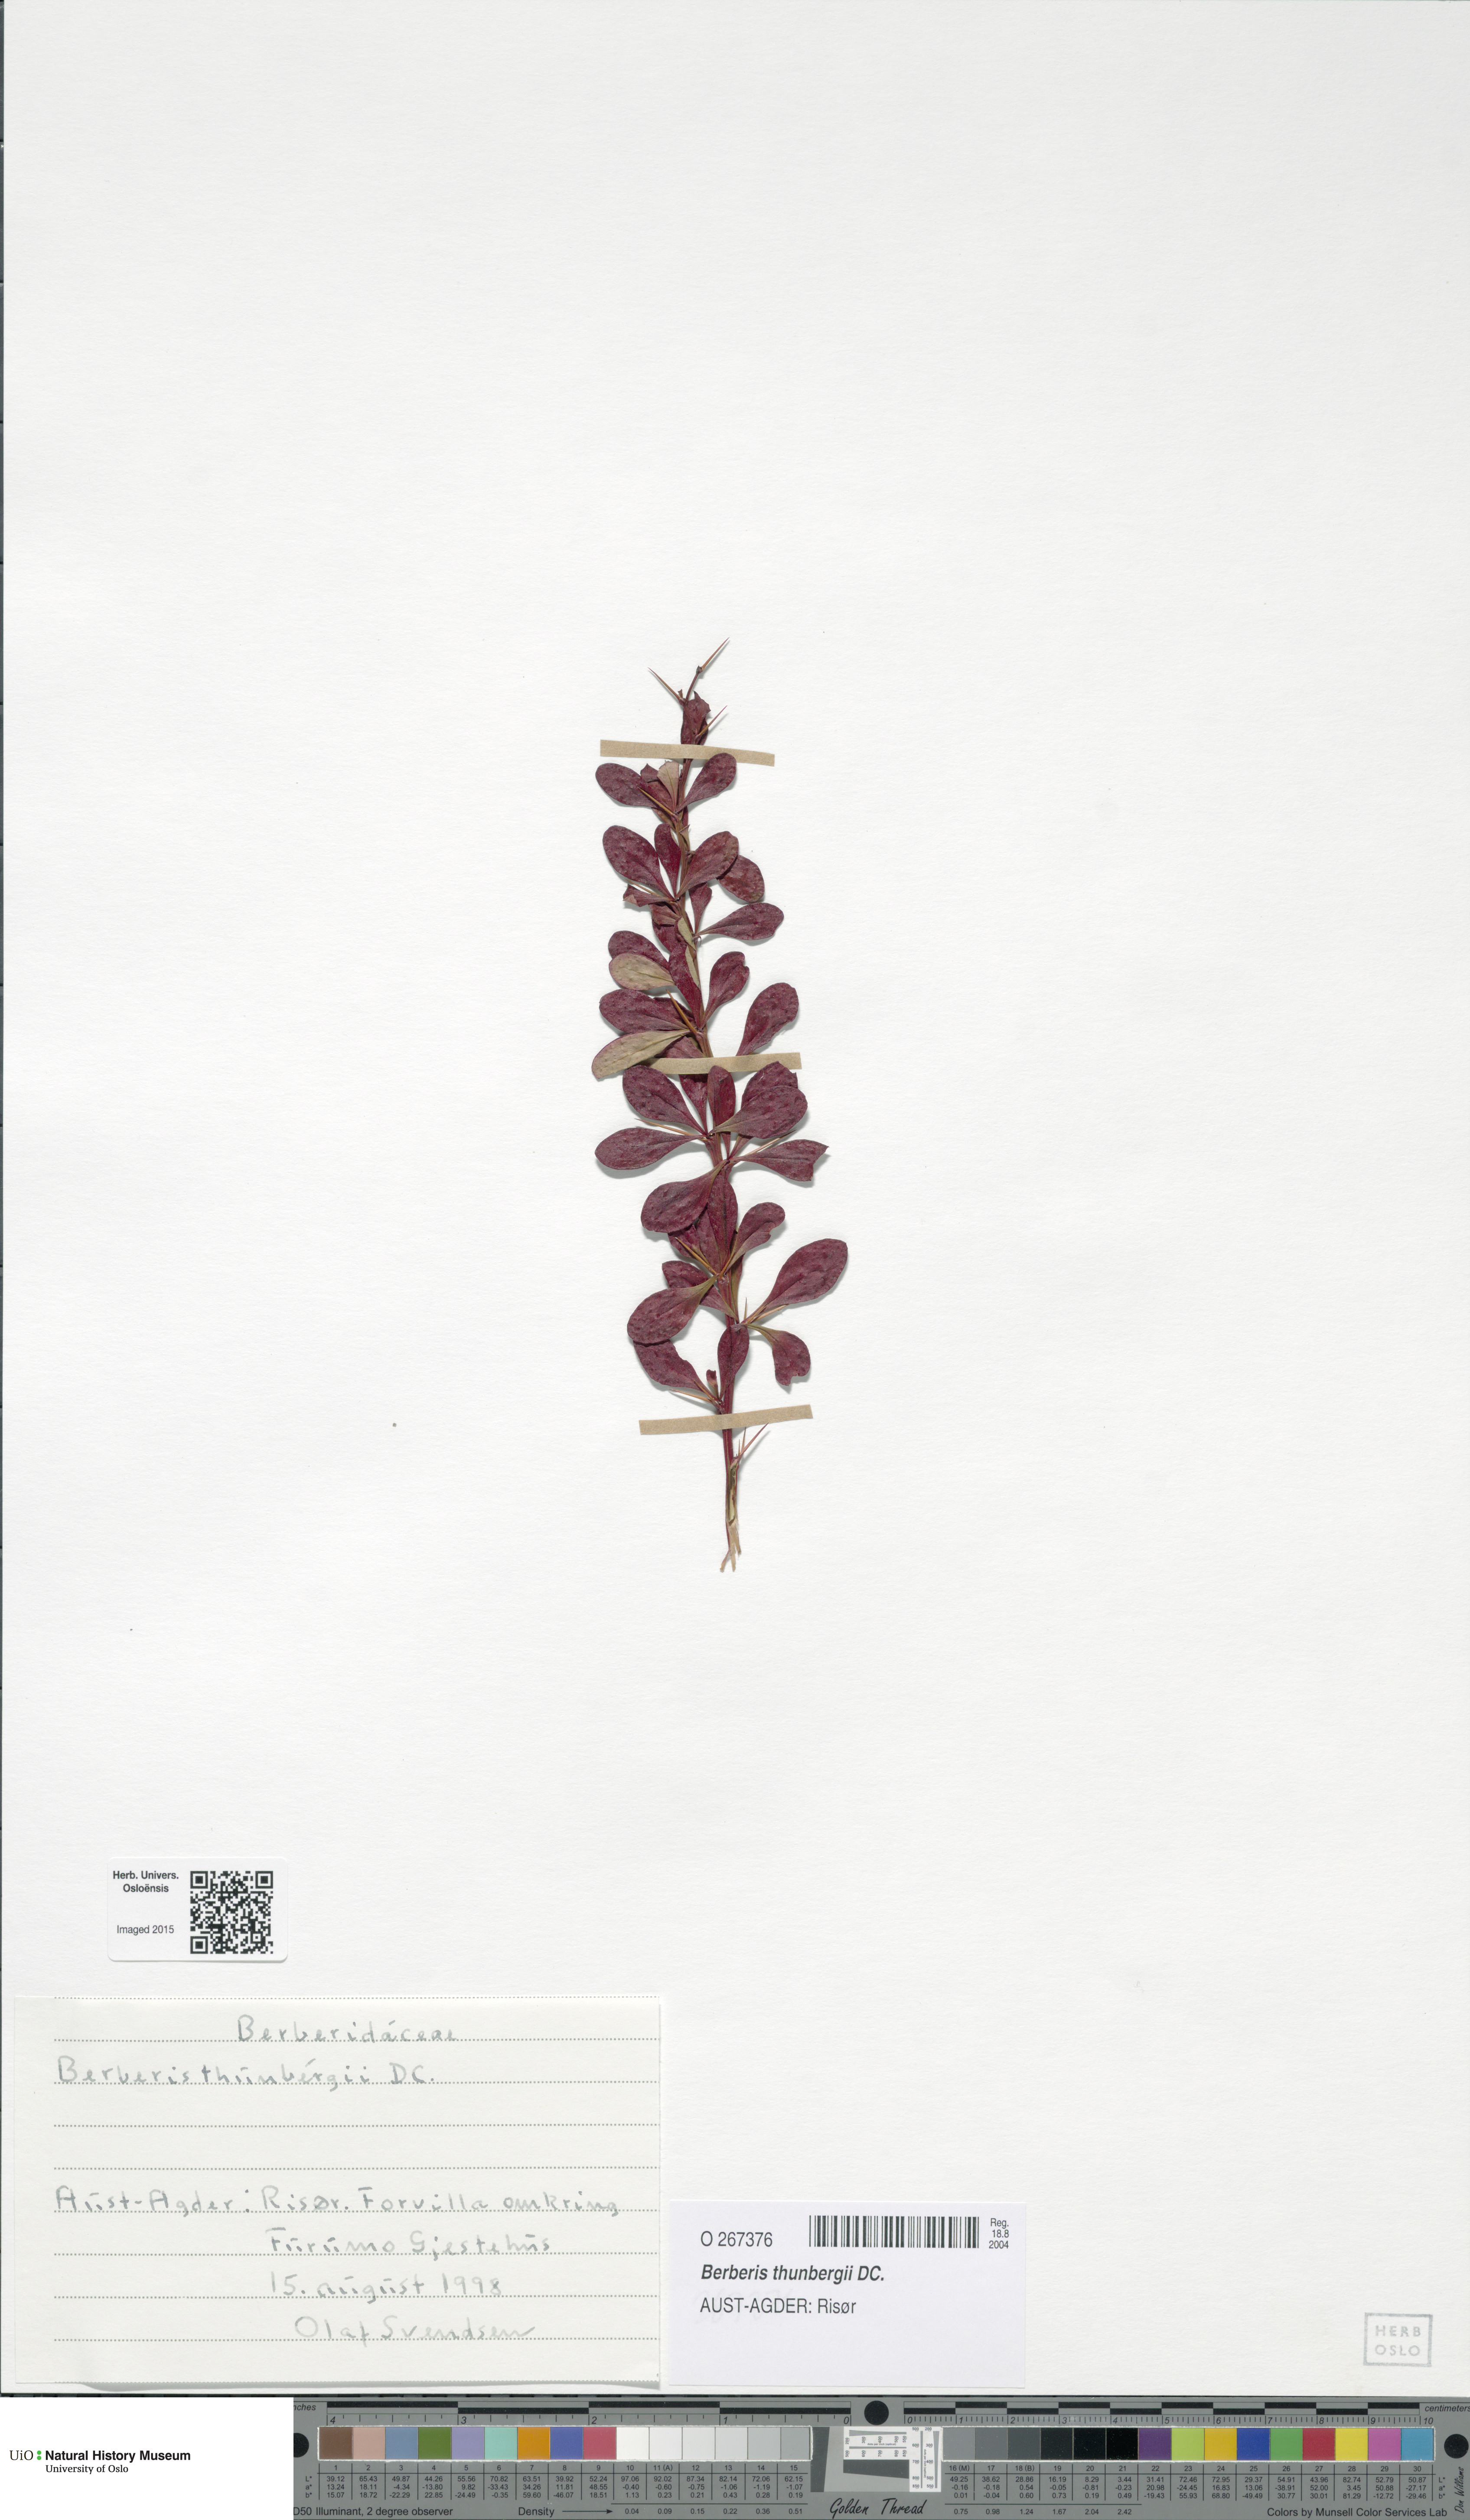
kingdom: Plantae
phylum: Tracheophyta
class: Magnoliopsida
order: Ranunculales
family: Berberidaceae
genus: Berberis
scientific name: Berberis thunbergii
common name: Japanese barberry
